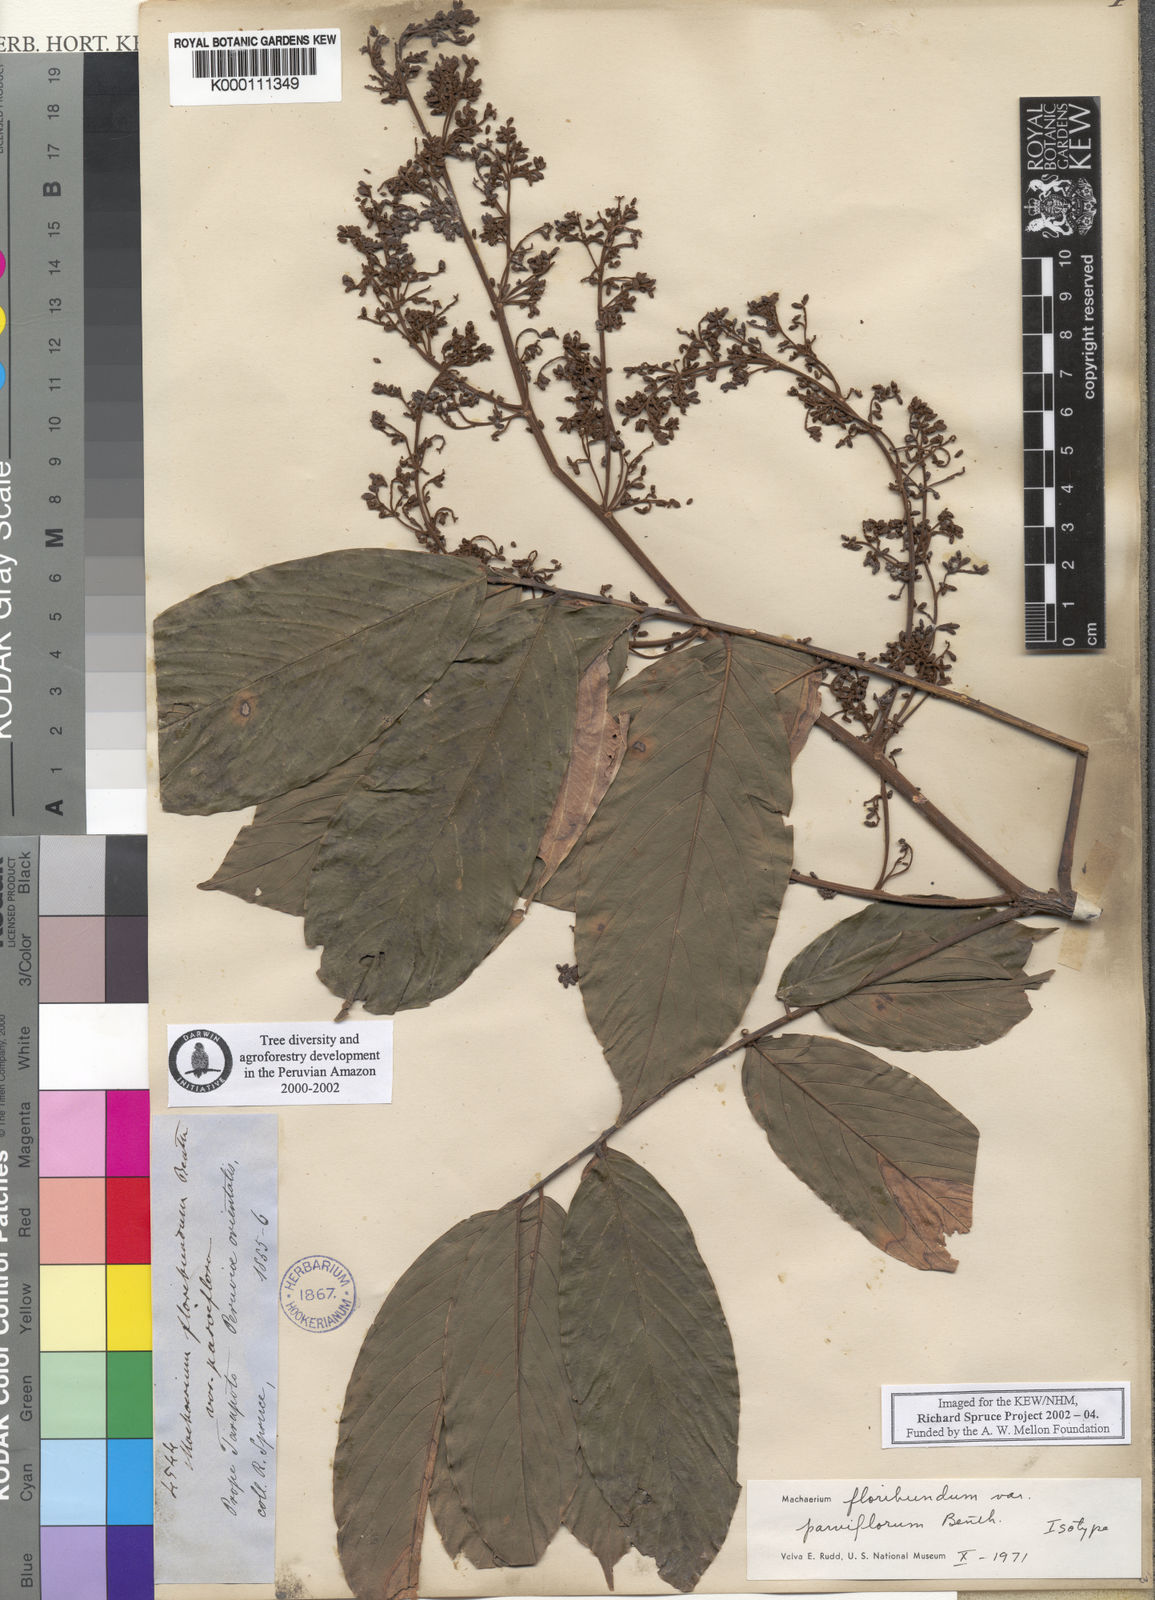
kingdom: Plantae
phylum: Tracheophyta
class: Magnoliopsida
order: Fabales
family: Fabaceae
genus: Machaerium
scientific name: Machaerium floribundum
